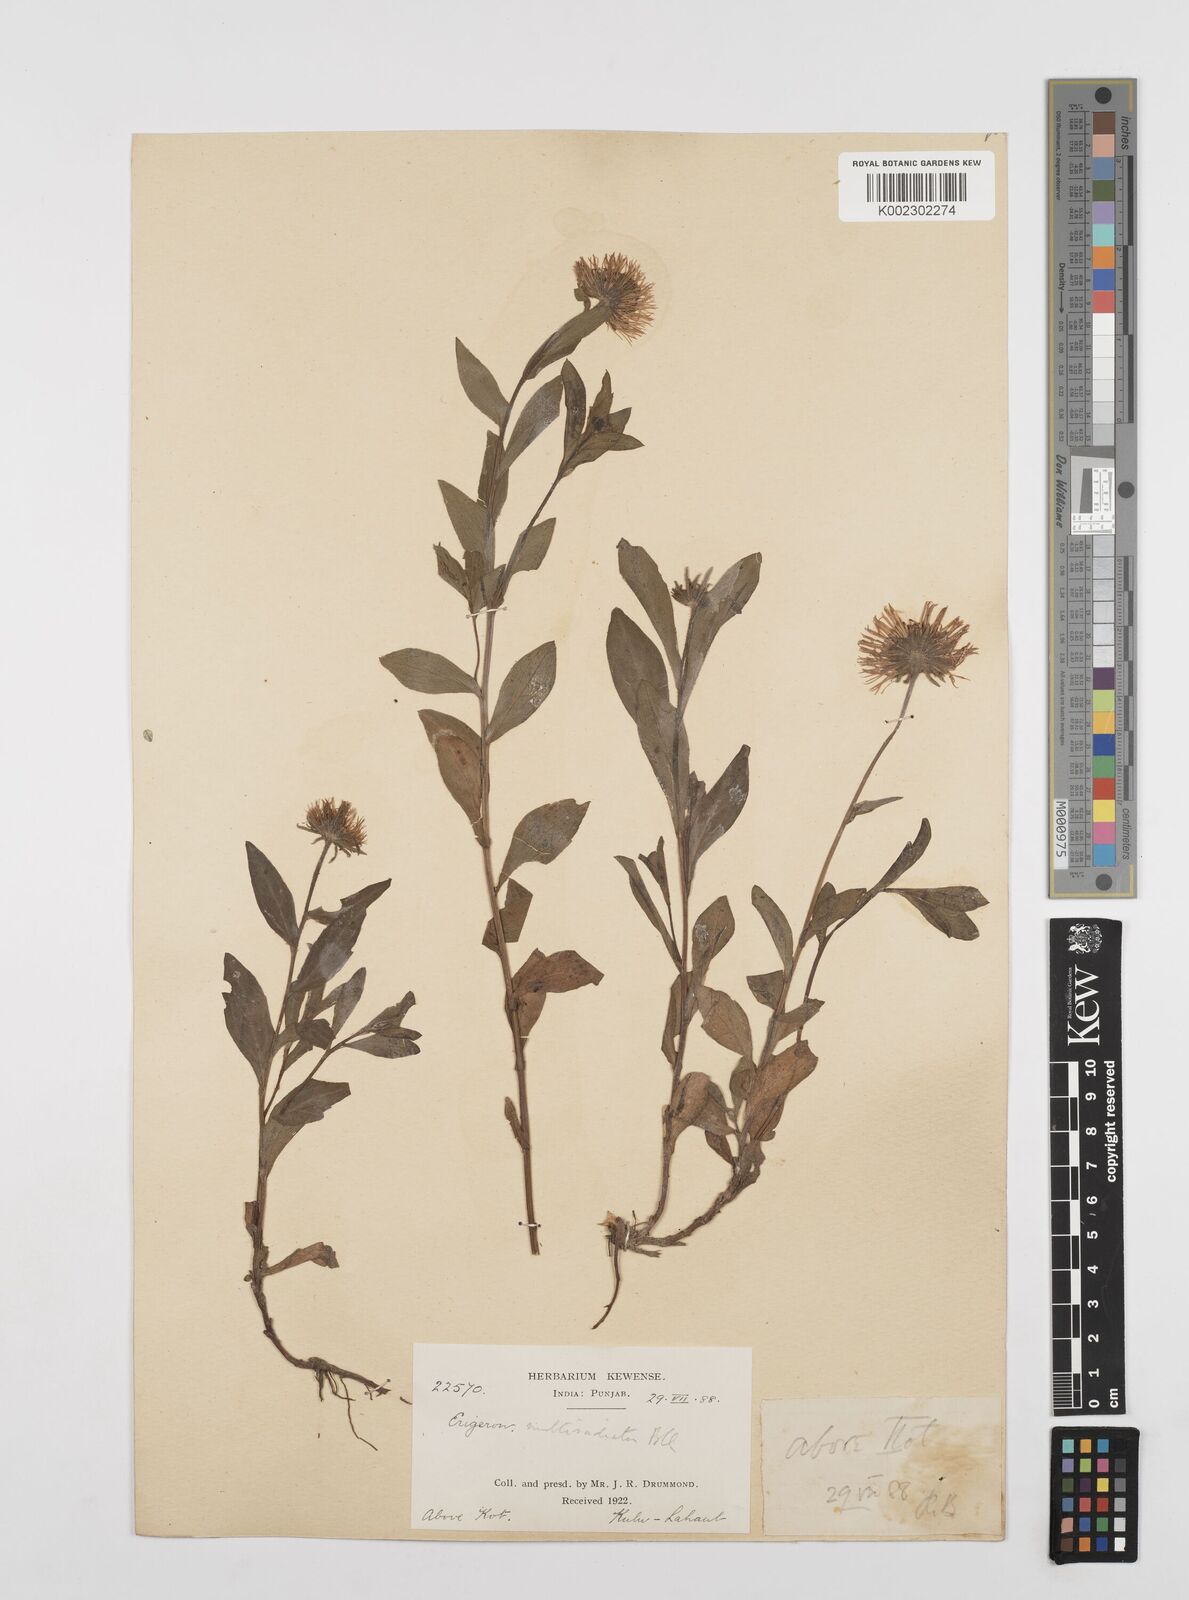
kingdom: Plantae
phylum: Tracheophyta
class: Magnoliopsida
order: Asterales
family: Asteraceae
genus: Erigeron
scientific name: Erigeron multiradiatus
